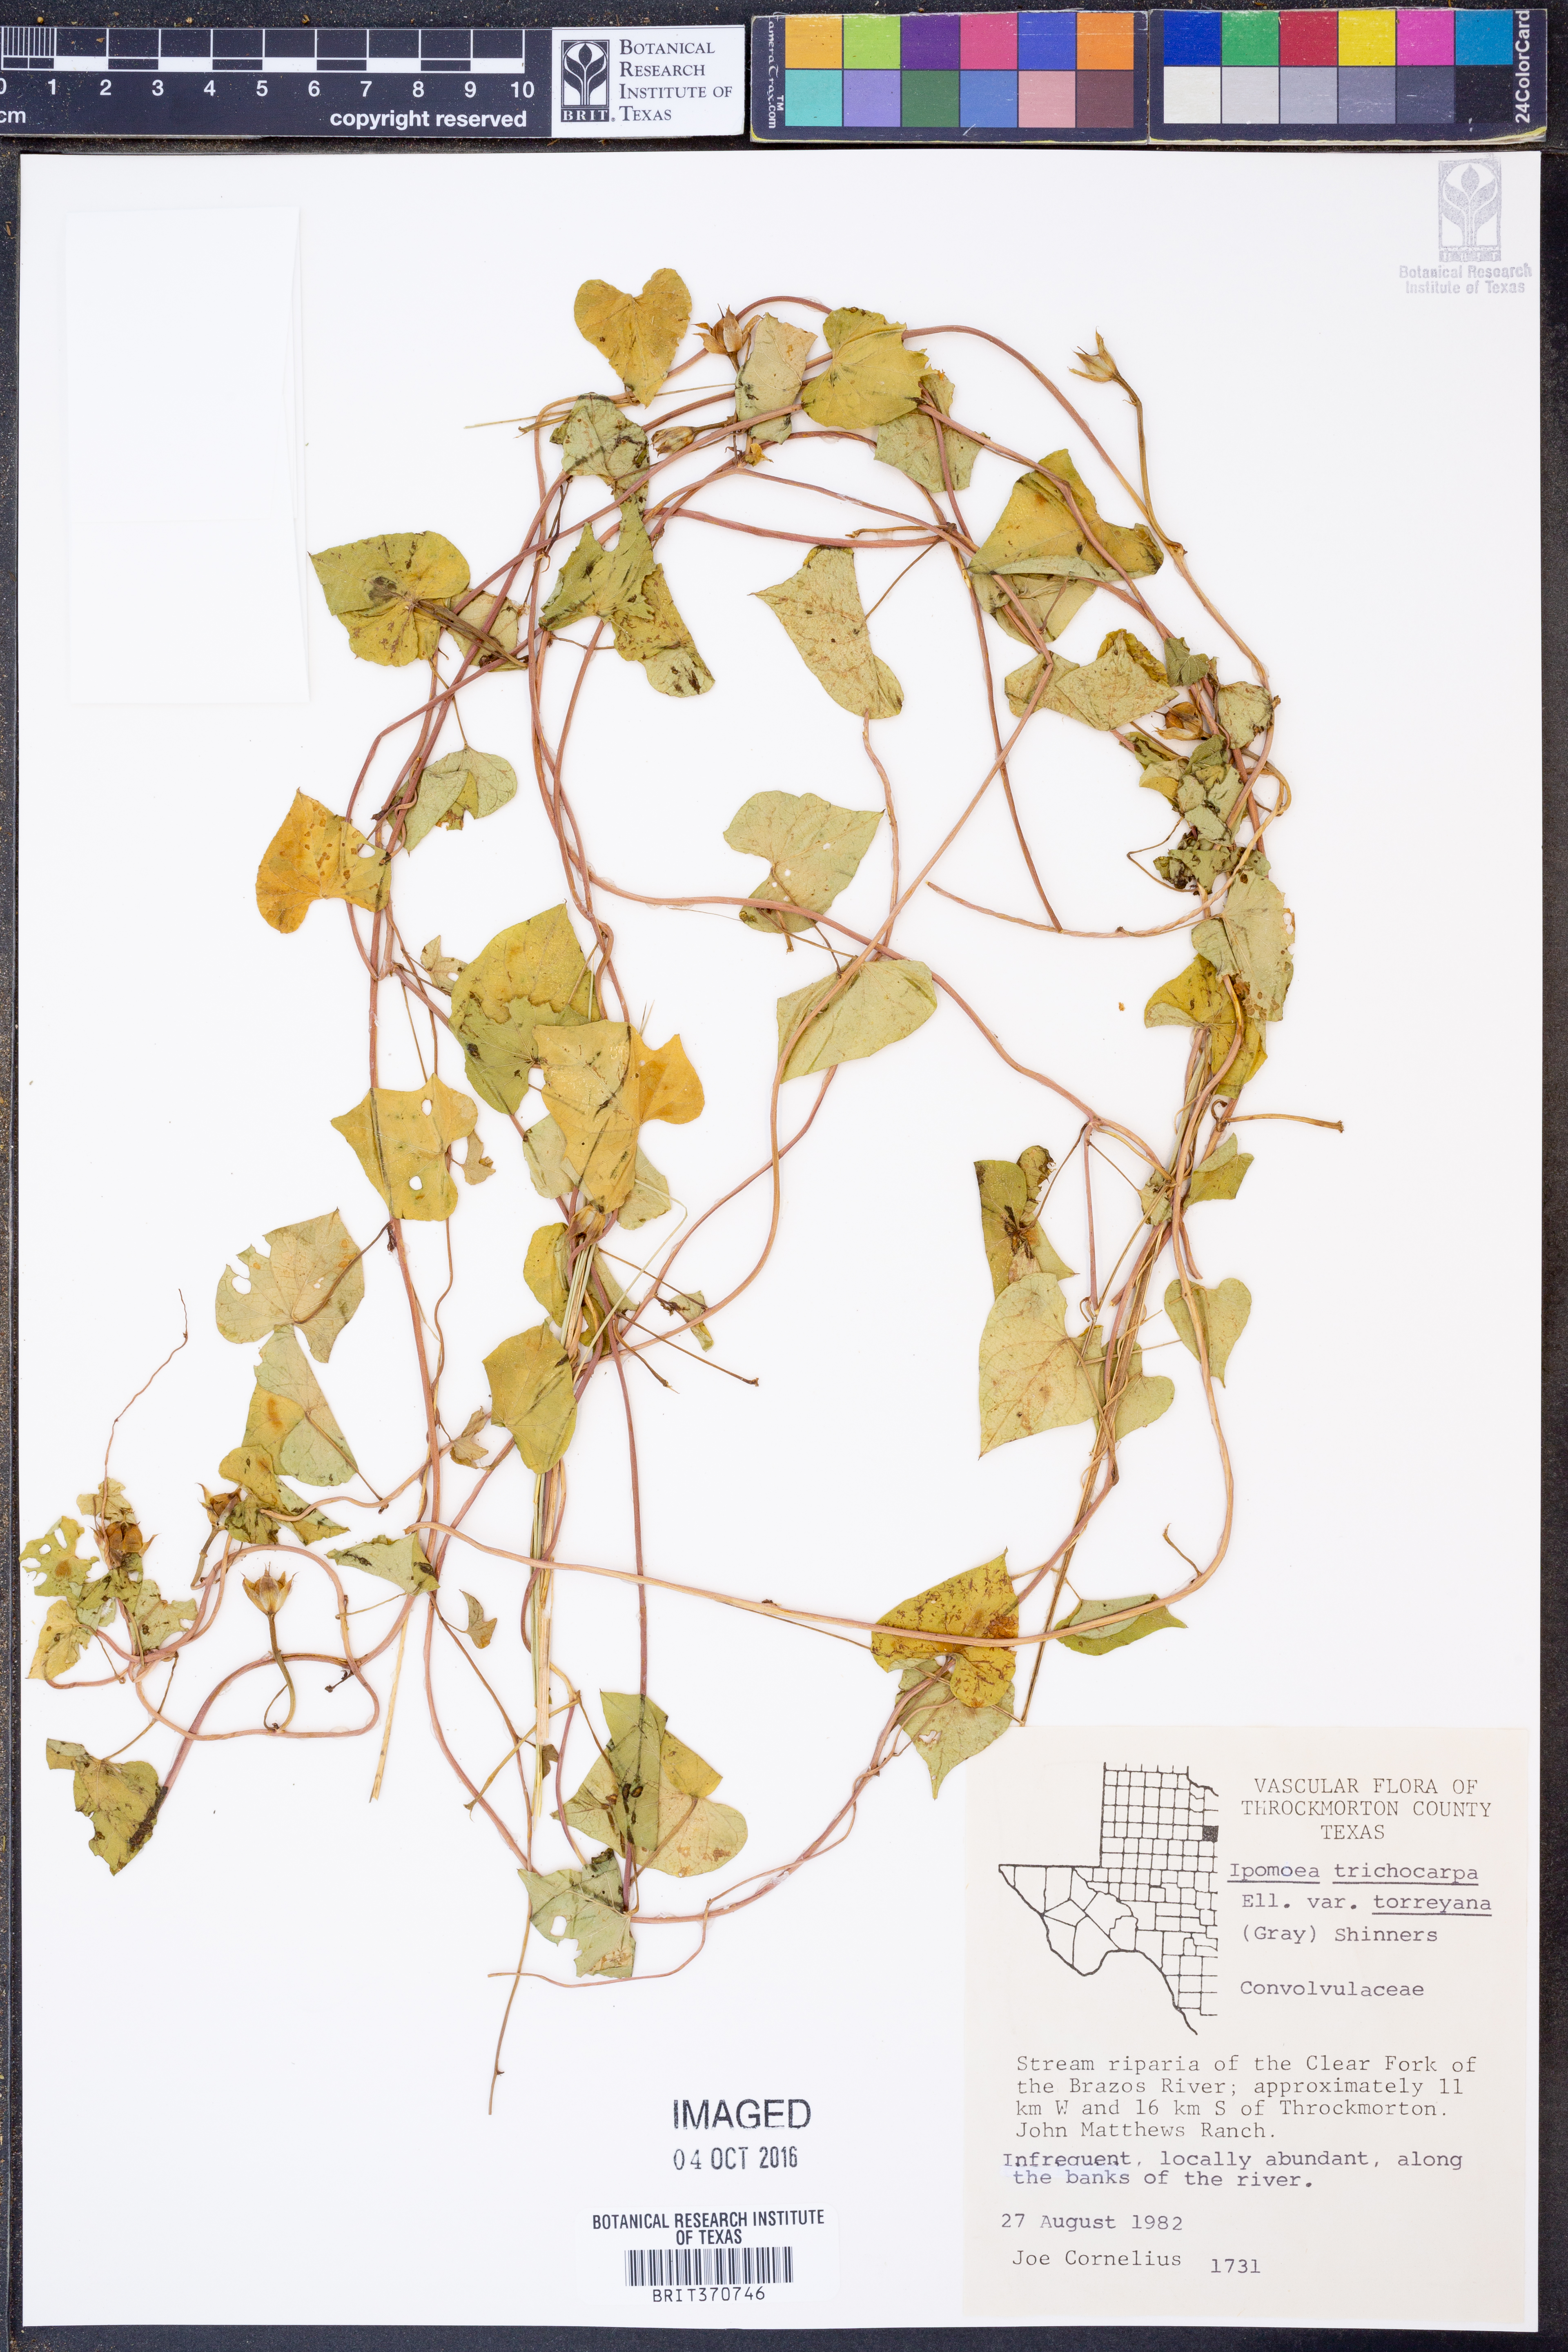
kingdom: Plantae
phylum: Tracheophyta
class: Magnoliopsida
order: Solanales
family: Convolvulaceae
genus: Ipomoea
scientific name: Ipomoea cordatotriloba
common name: Cotton morning glory
